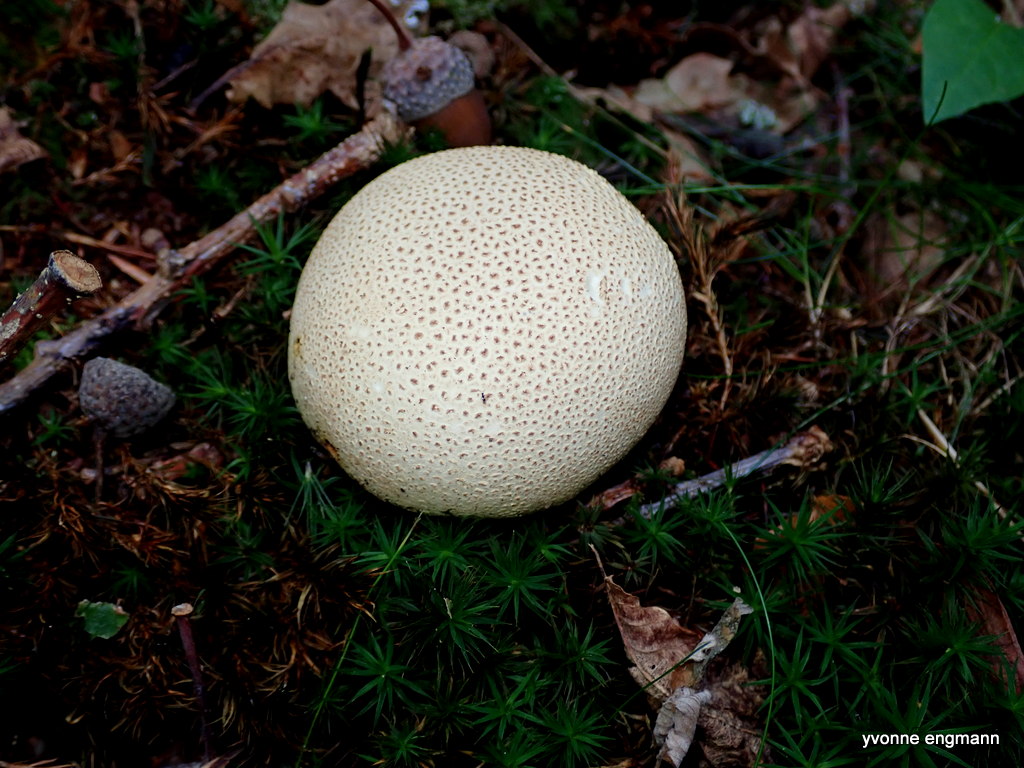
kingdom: Fungi
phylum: Basidiomycota
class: Agaricomycetes
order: Boletales
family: Sclerodermataceae
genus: Scleroderma
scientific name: Scleroderma citrinum
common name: almindelig bruskbold
